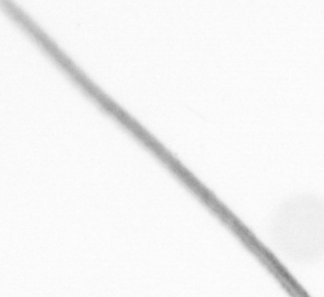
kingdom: Chromista
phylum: Ochrophyta
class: Bacillariophyceae
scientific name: Bacillariophyceae
